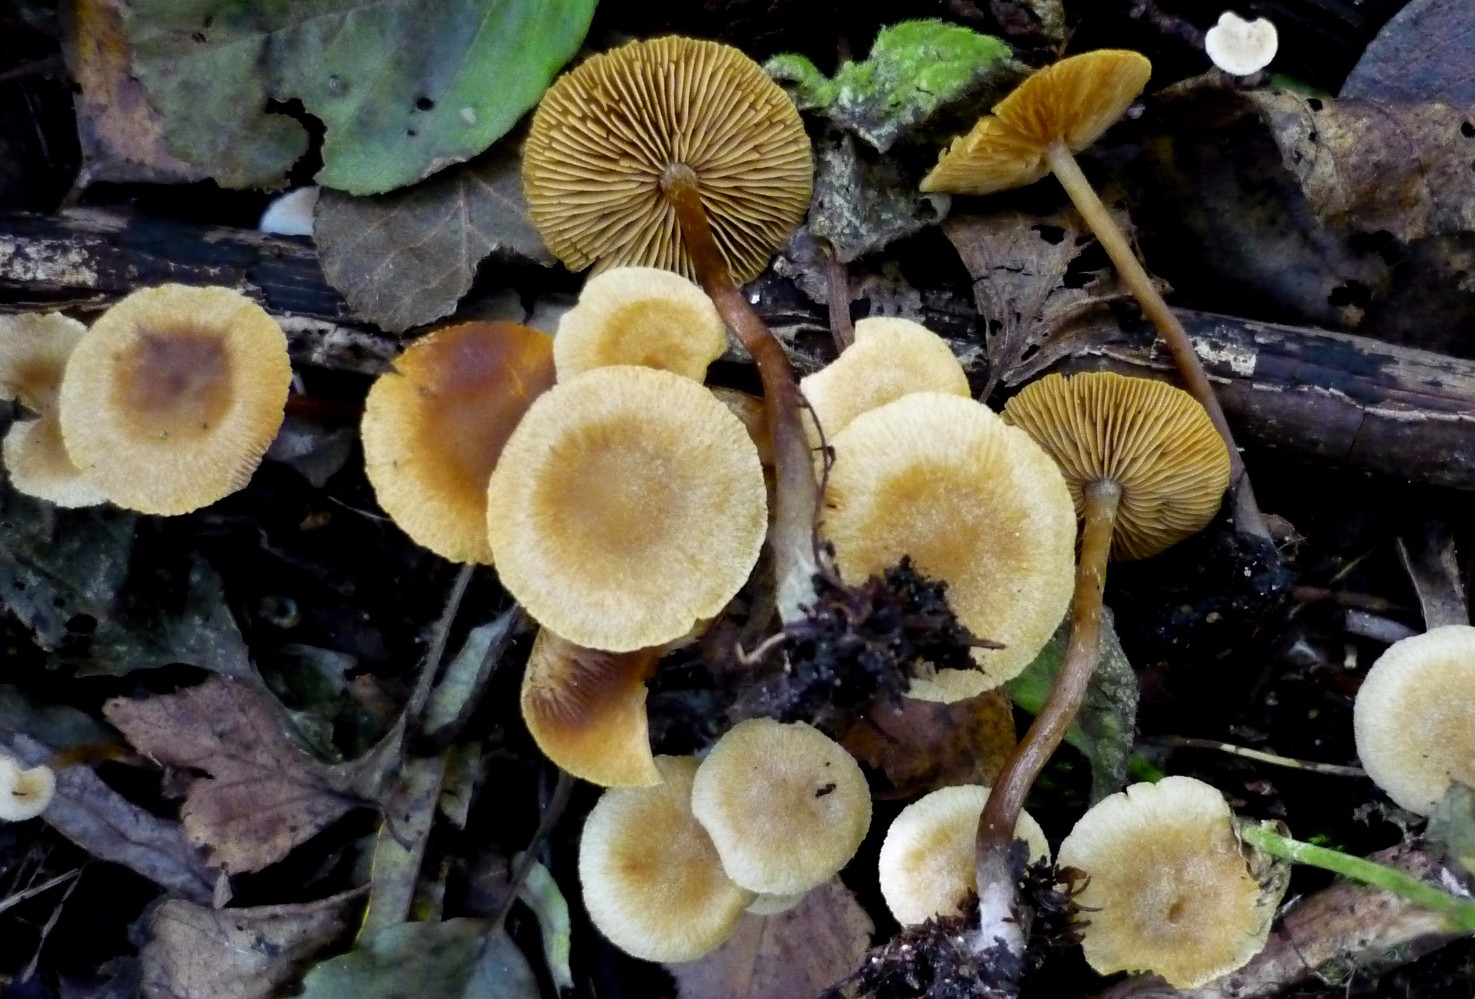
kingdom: Fungi
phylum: Basidiomycota
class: Agaricomycetes
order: Agaricales
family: Hymenogastraceae
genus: Naucoria
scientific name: Naucoria escharioides
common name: lys elle-knaphat
